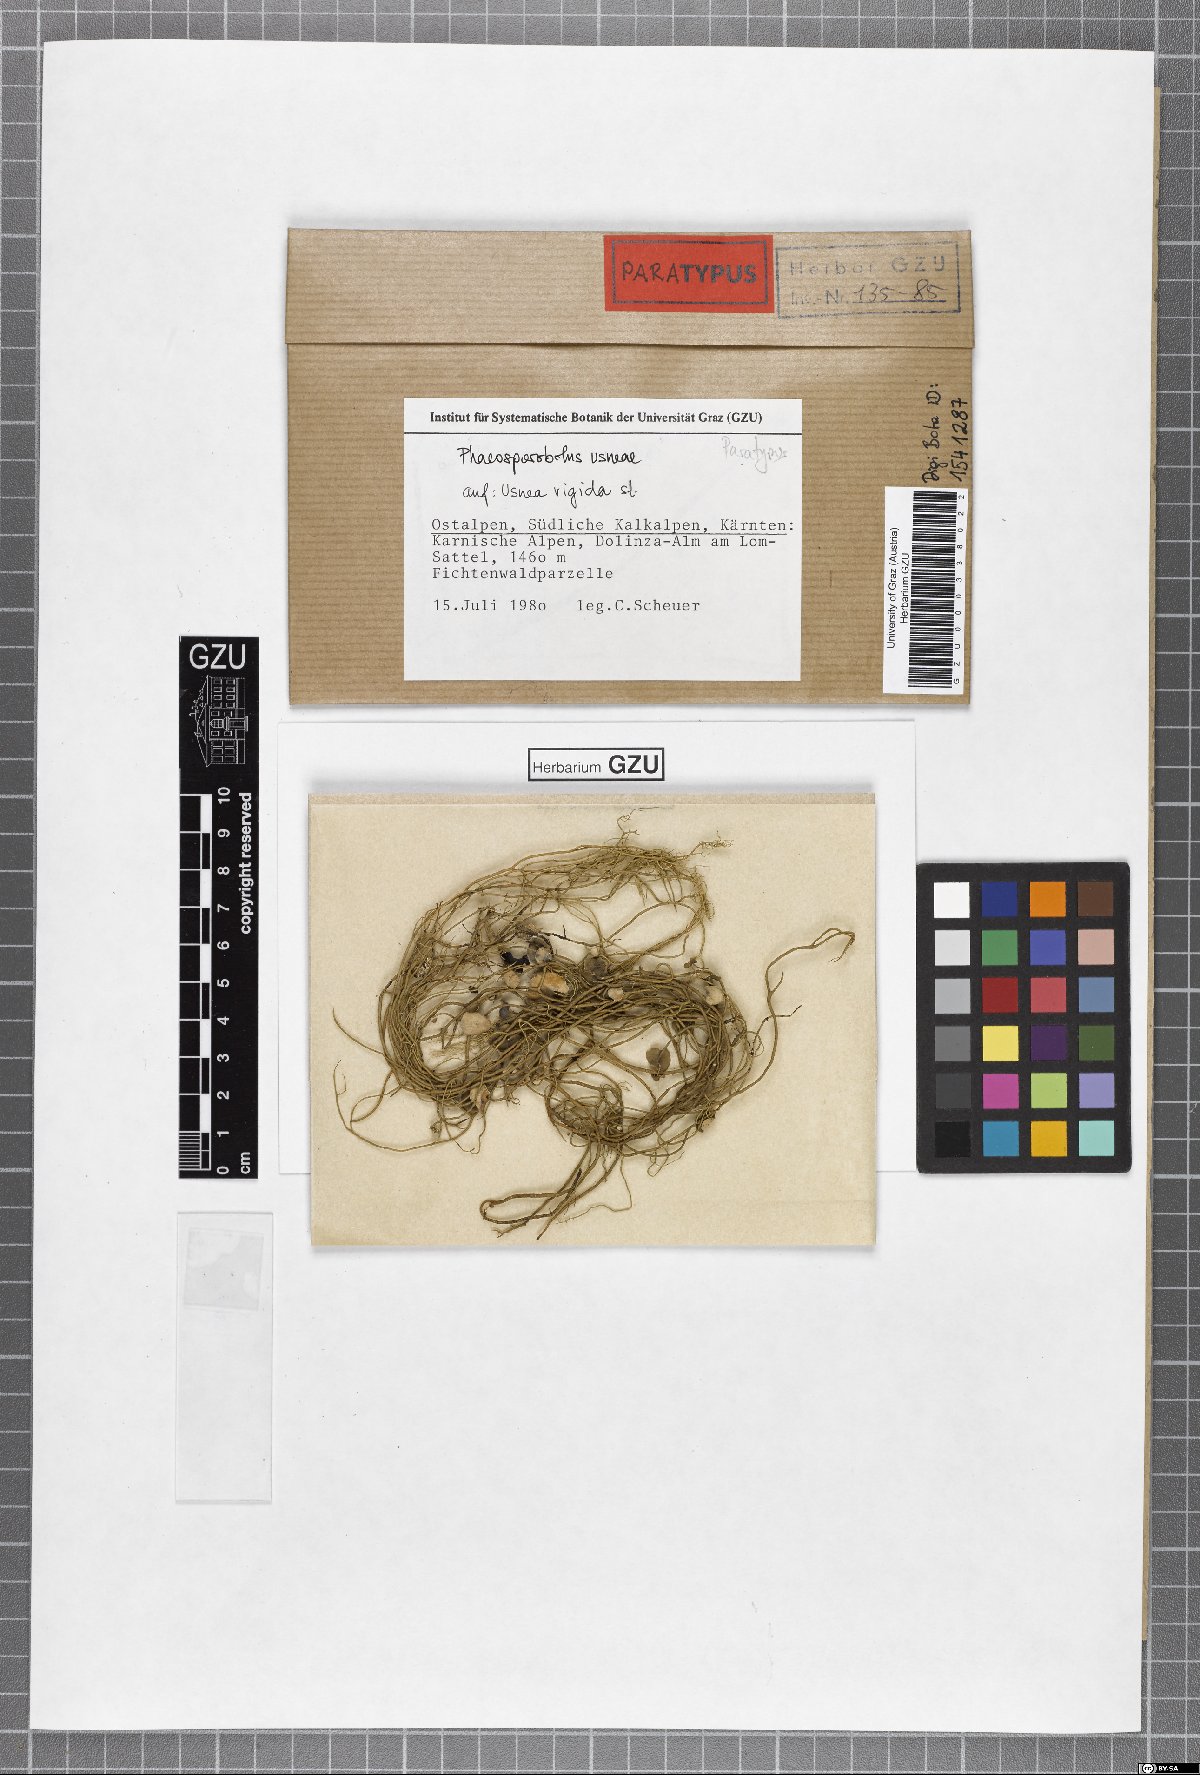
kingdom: Fungi
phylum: Ascomycota
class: Arthoniomycetes
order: Lichenostigmatales
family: Phaeococcomycetaceae
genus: Phaeosporobolus
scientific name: Phaeosporobolus usneae
